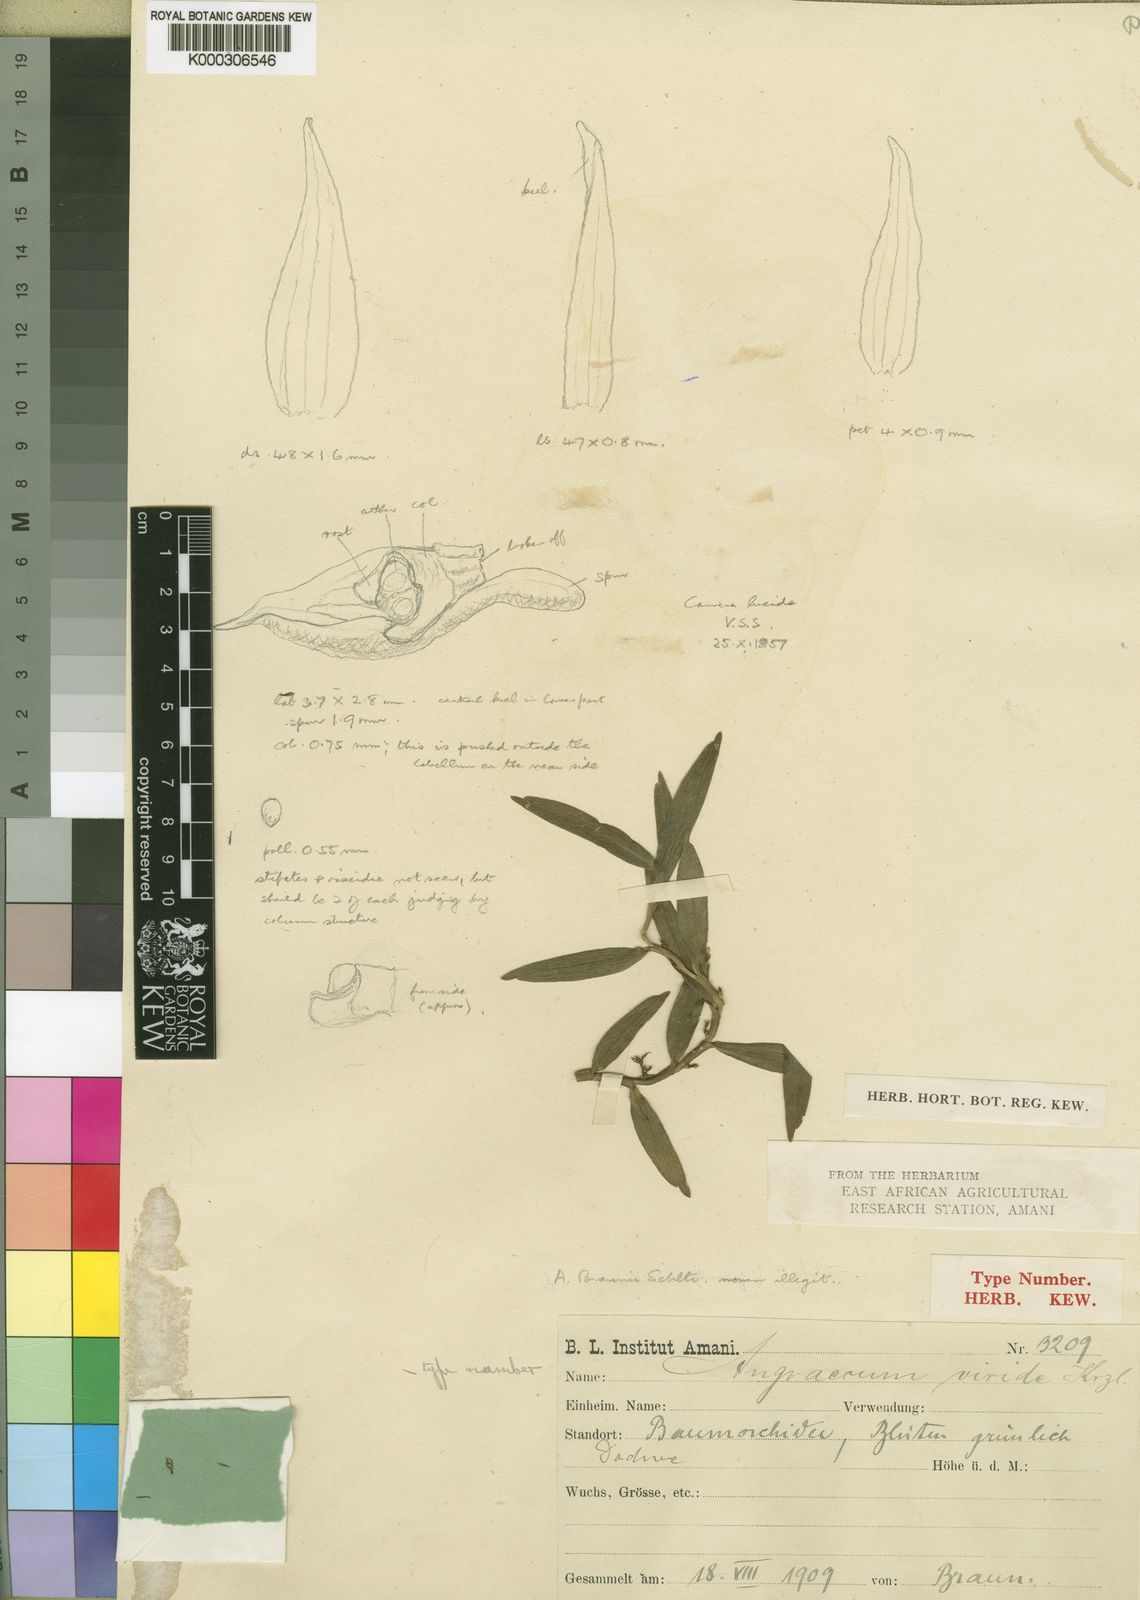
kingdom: Plantae
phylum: Tracheophyta
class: Liliopsida
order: Asparagales
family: Orchidaceae
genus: Angraecum
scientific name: Angraecum viride
